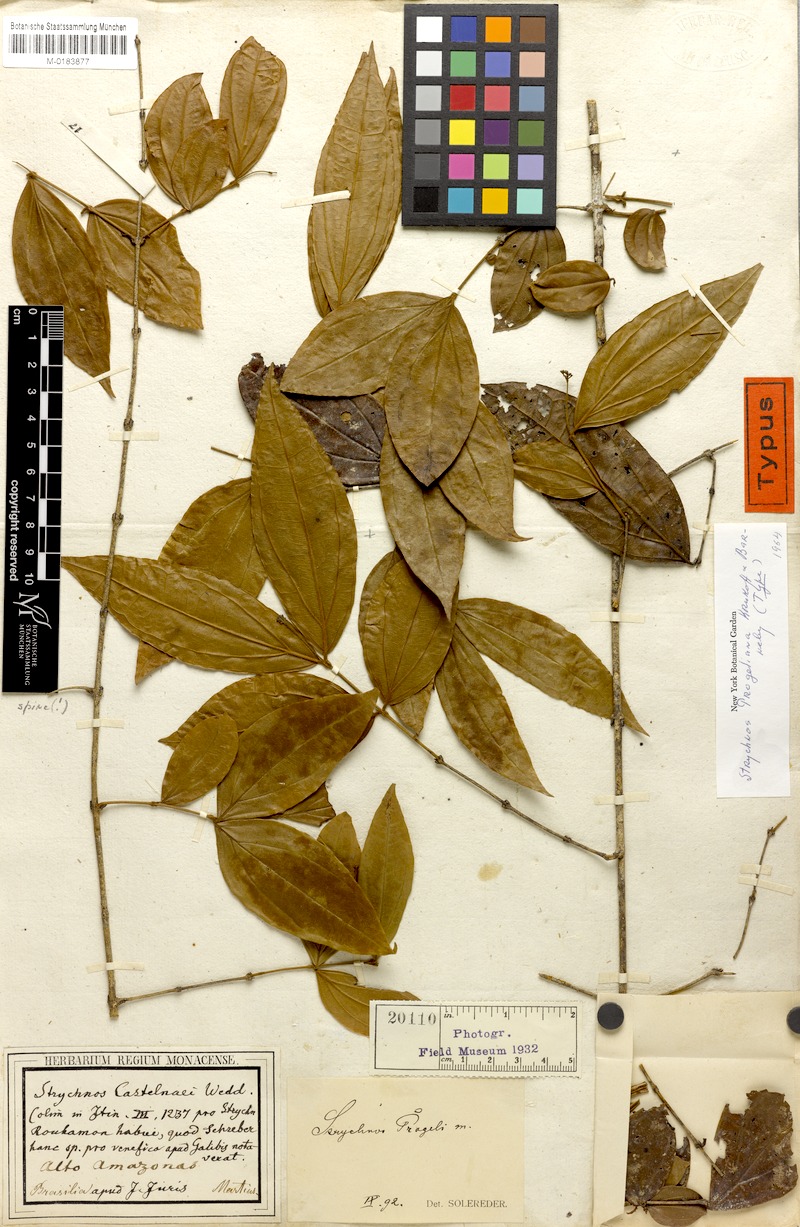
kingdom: Plantae
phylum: Tracheophyta
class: Magnoliopsida
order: Gentianales
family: Loganiaceae
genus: Strychnos
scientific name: Strychnos progeliana
